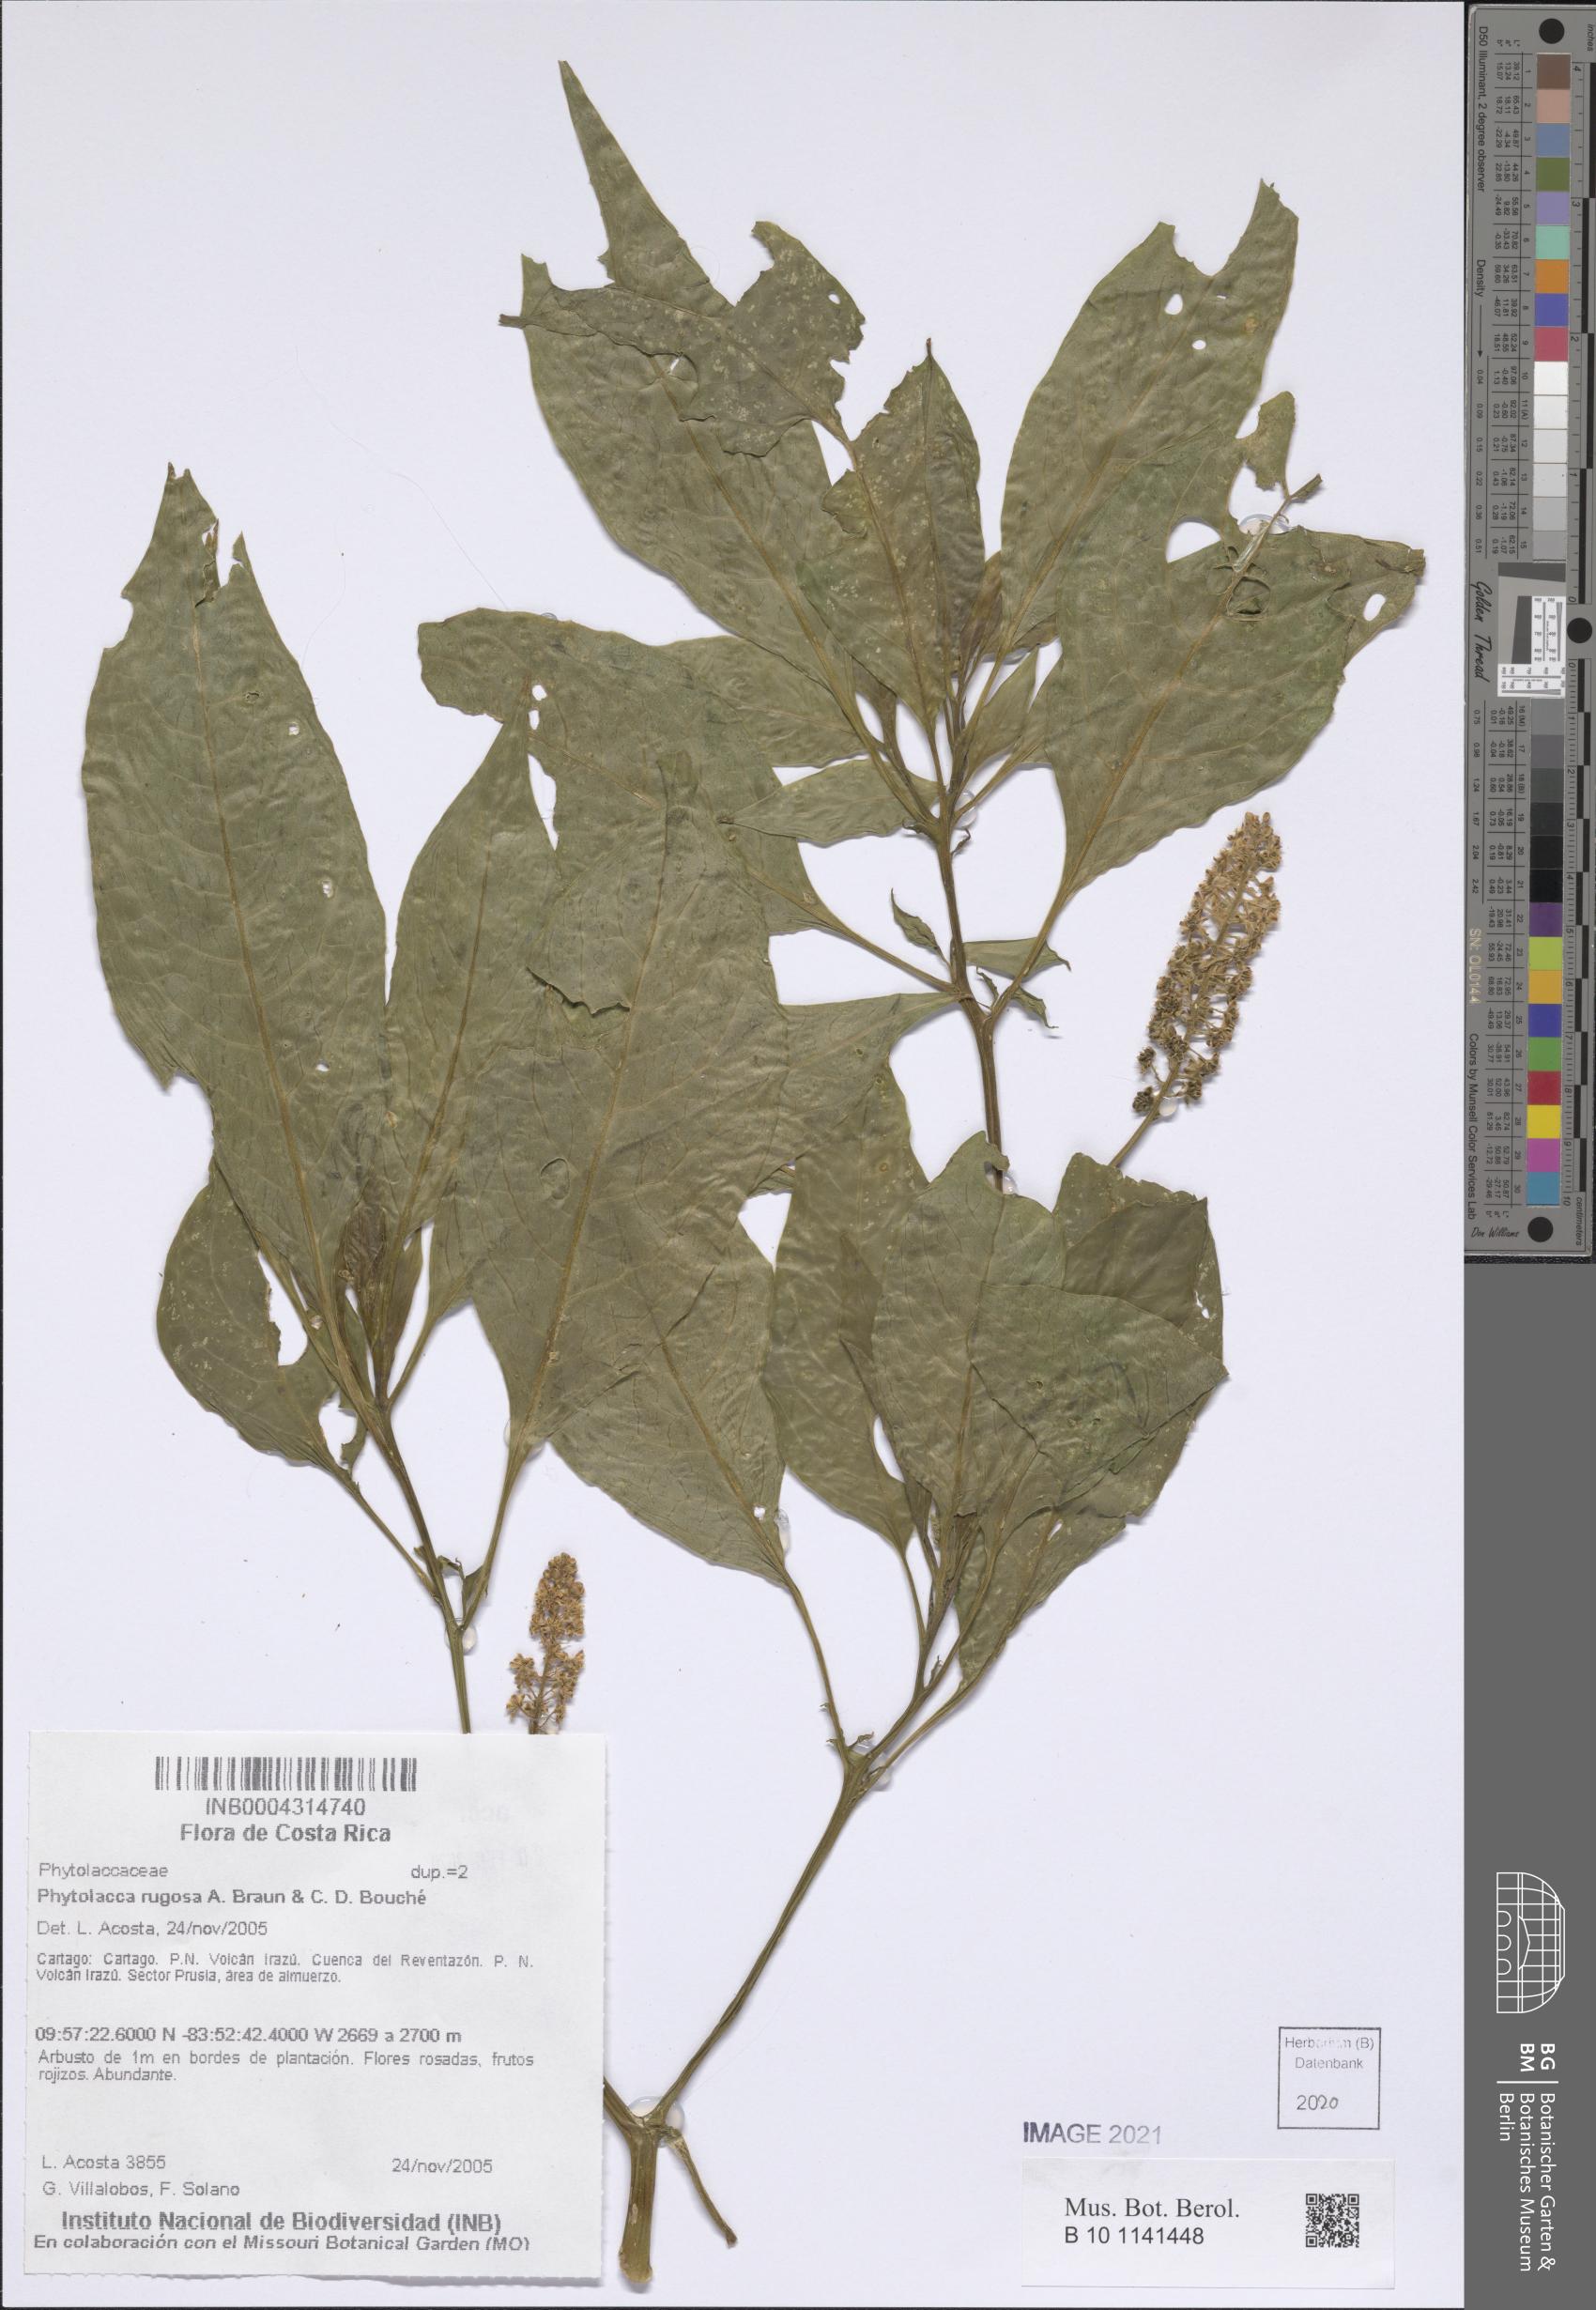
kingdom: Plantae
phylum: Tracheophyta
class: Magnoliopsida
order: Caryophyllales
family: Phytolaccaceae
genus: Phytolacca
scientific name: Phytolacca rugosa
